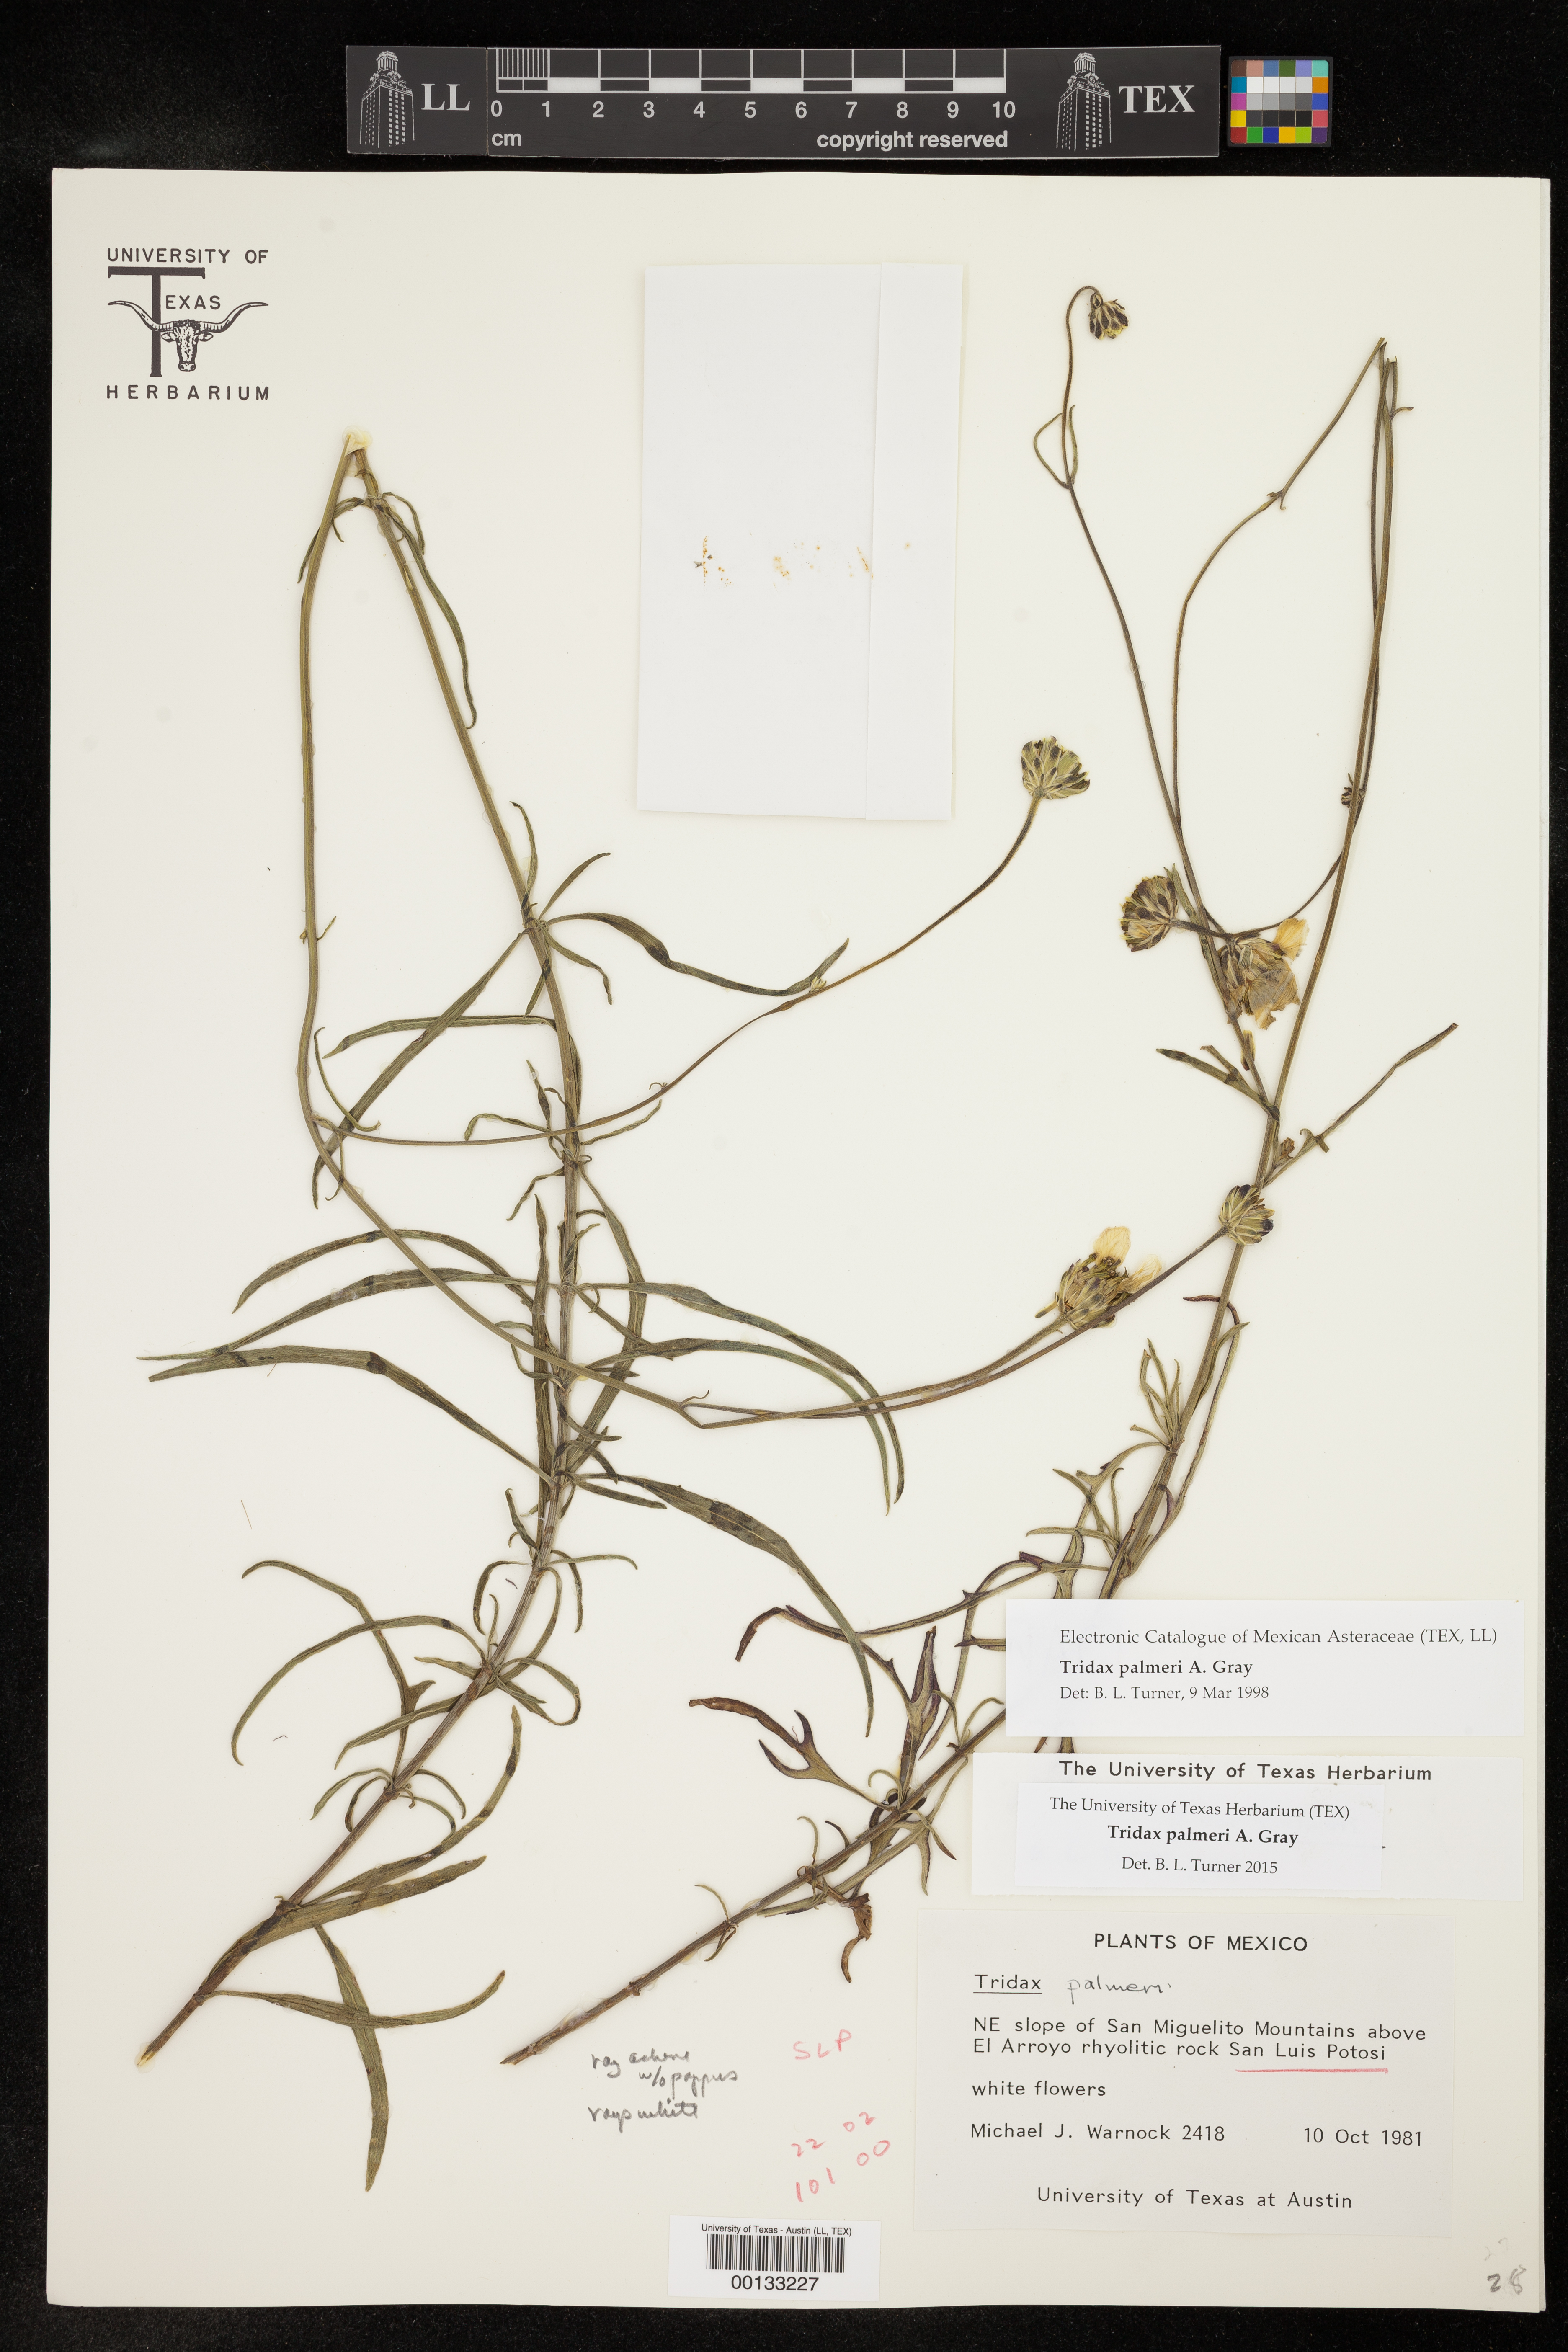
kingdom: Plantae
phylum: Tracheophyta
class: Magnoliopsida
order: Asterales
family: Asteraceae
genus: Tridax
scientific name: Tridax palmeri
